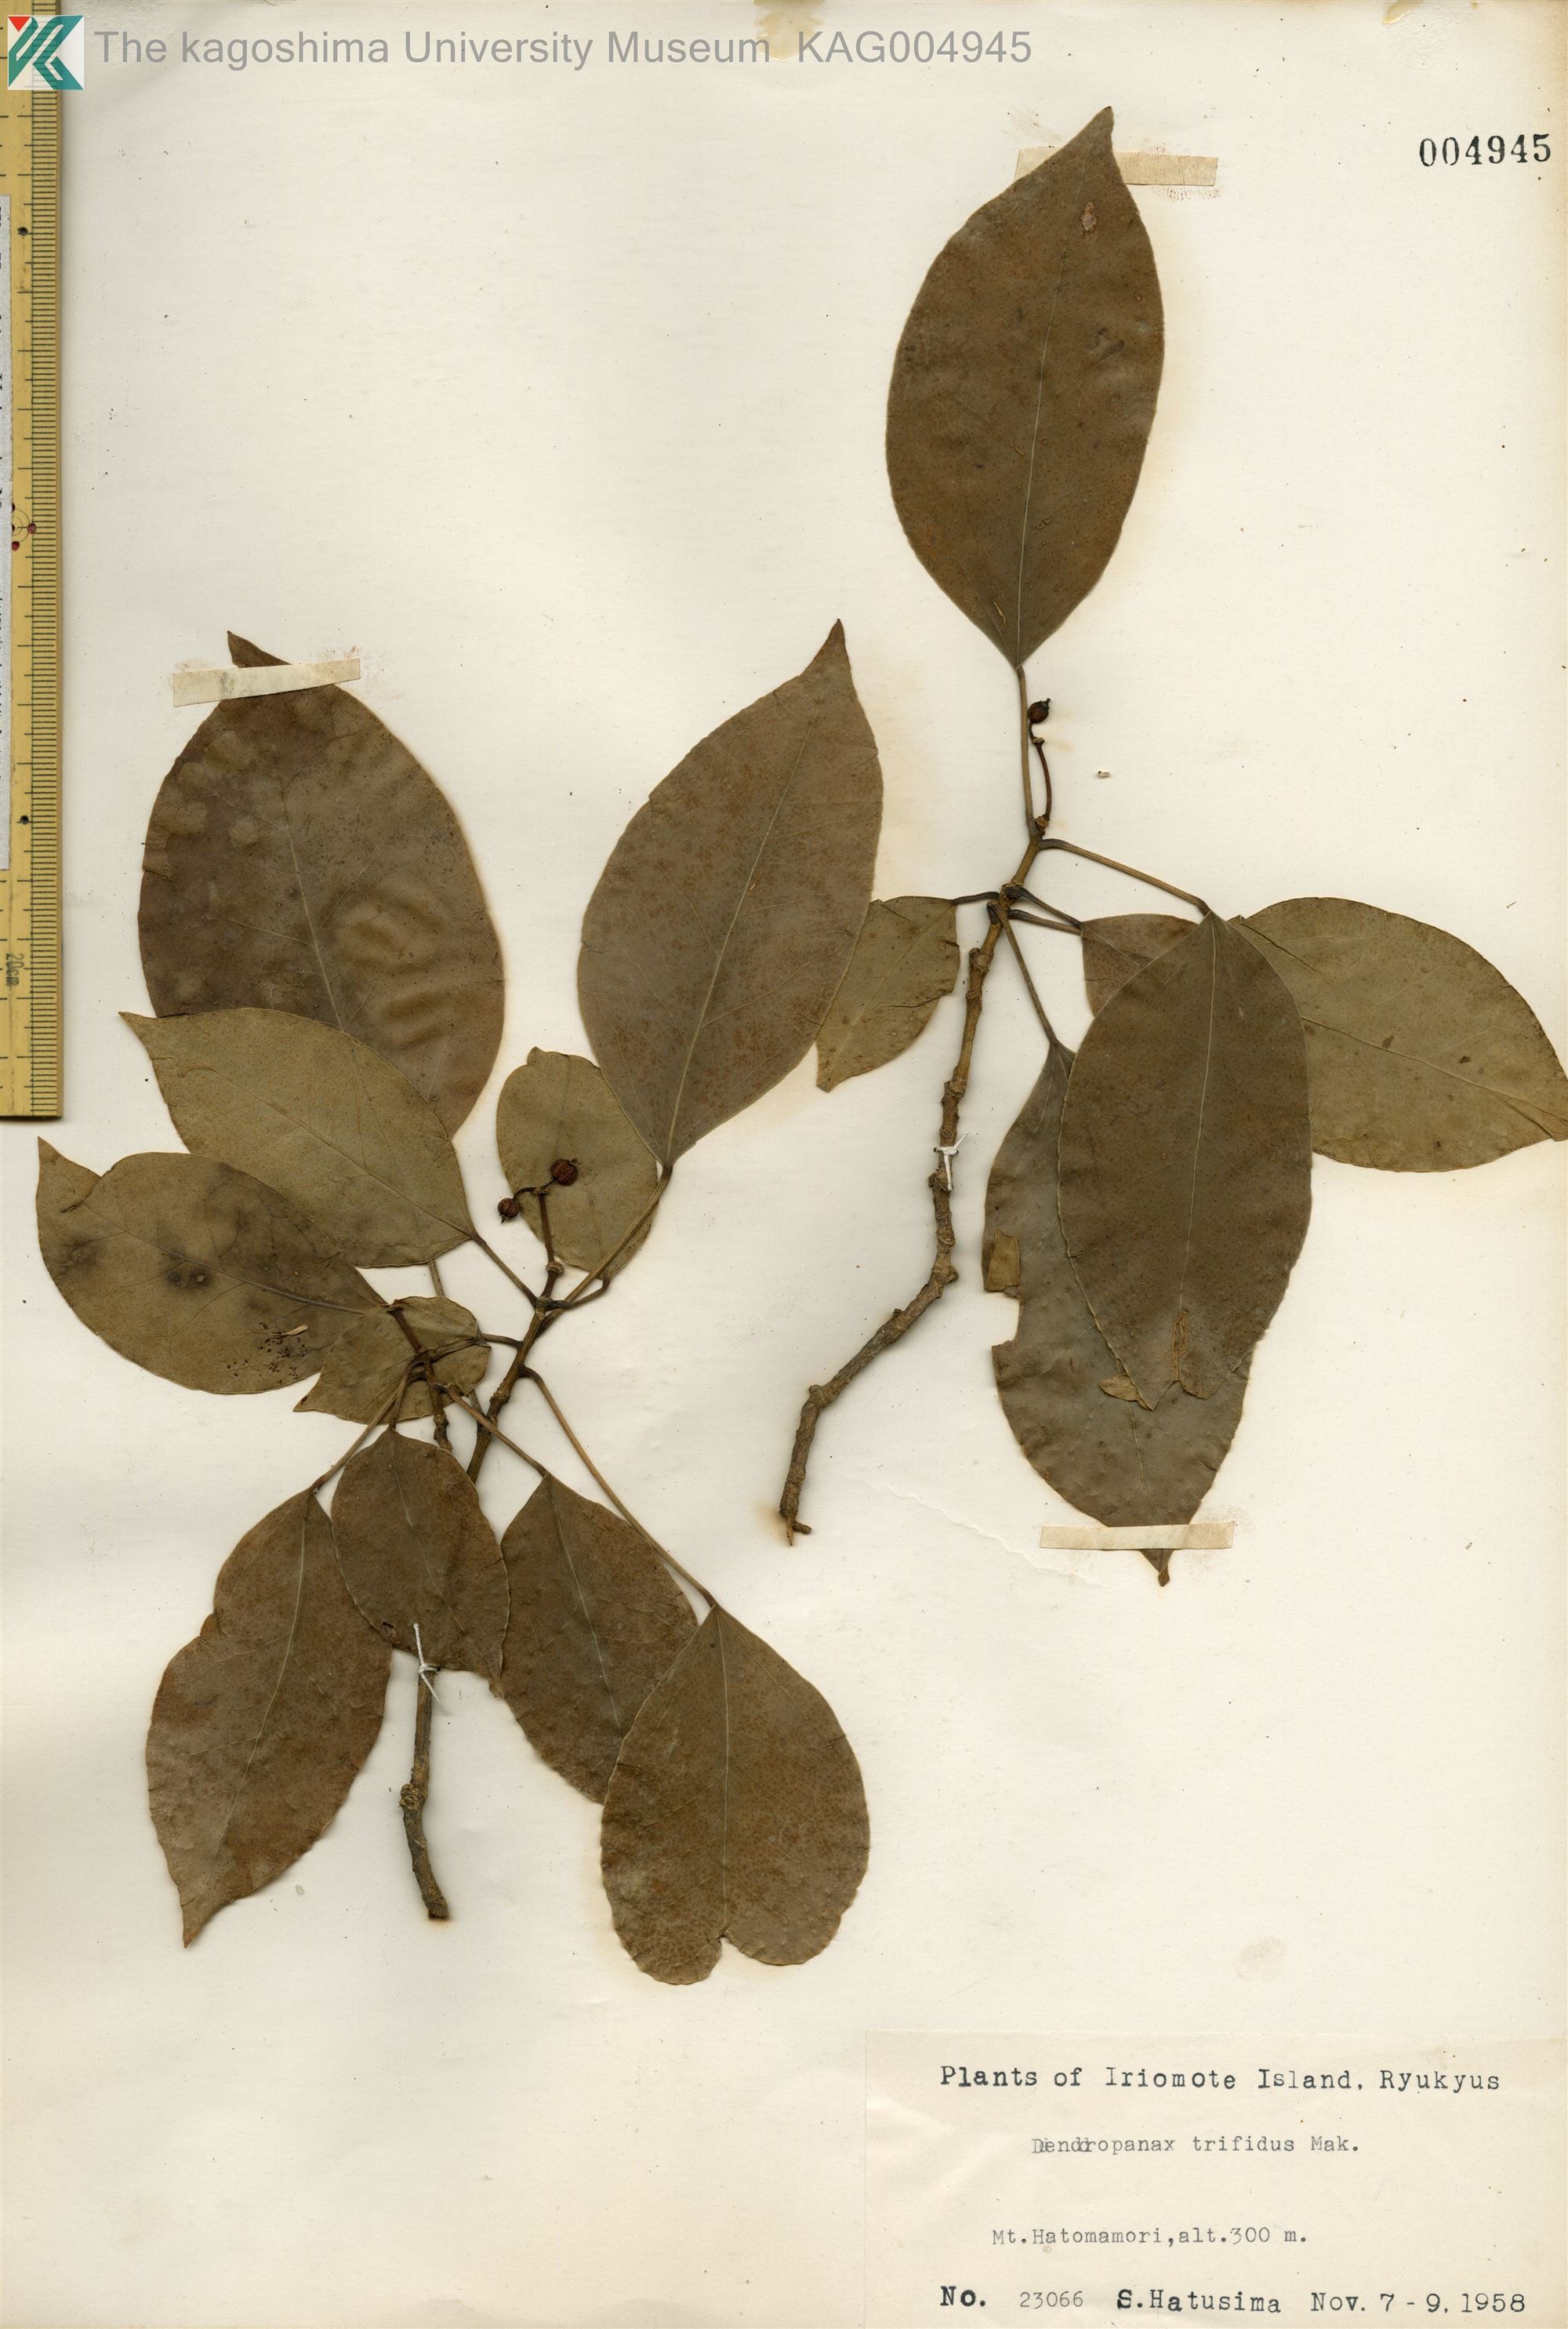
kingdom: Plantae
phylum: Tracheophyta
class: Magnoliopsida
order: Apiales
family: Araliaceae
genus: Dendropanax
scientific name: Dendropanax trifidus
